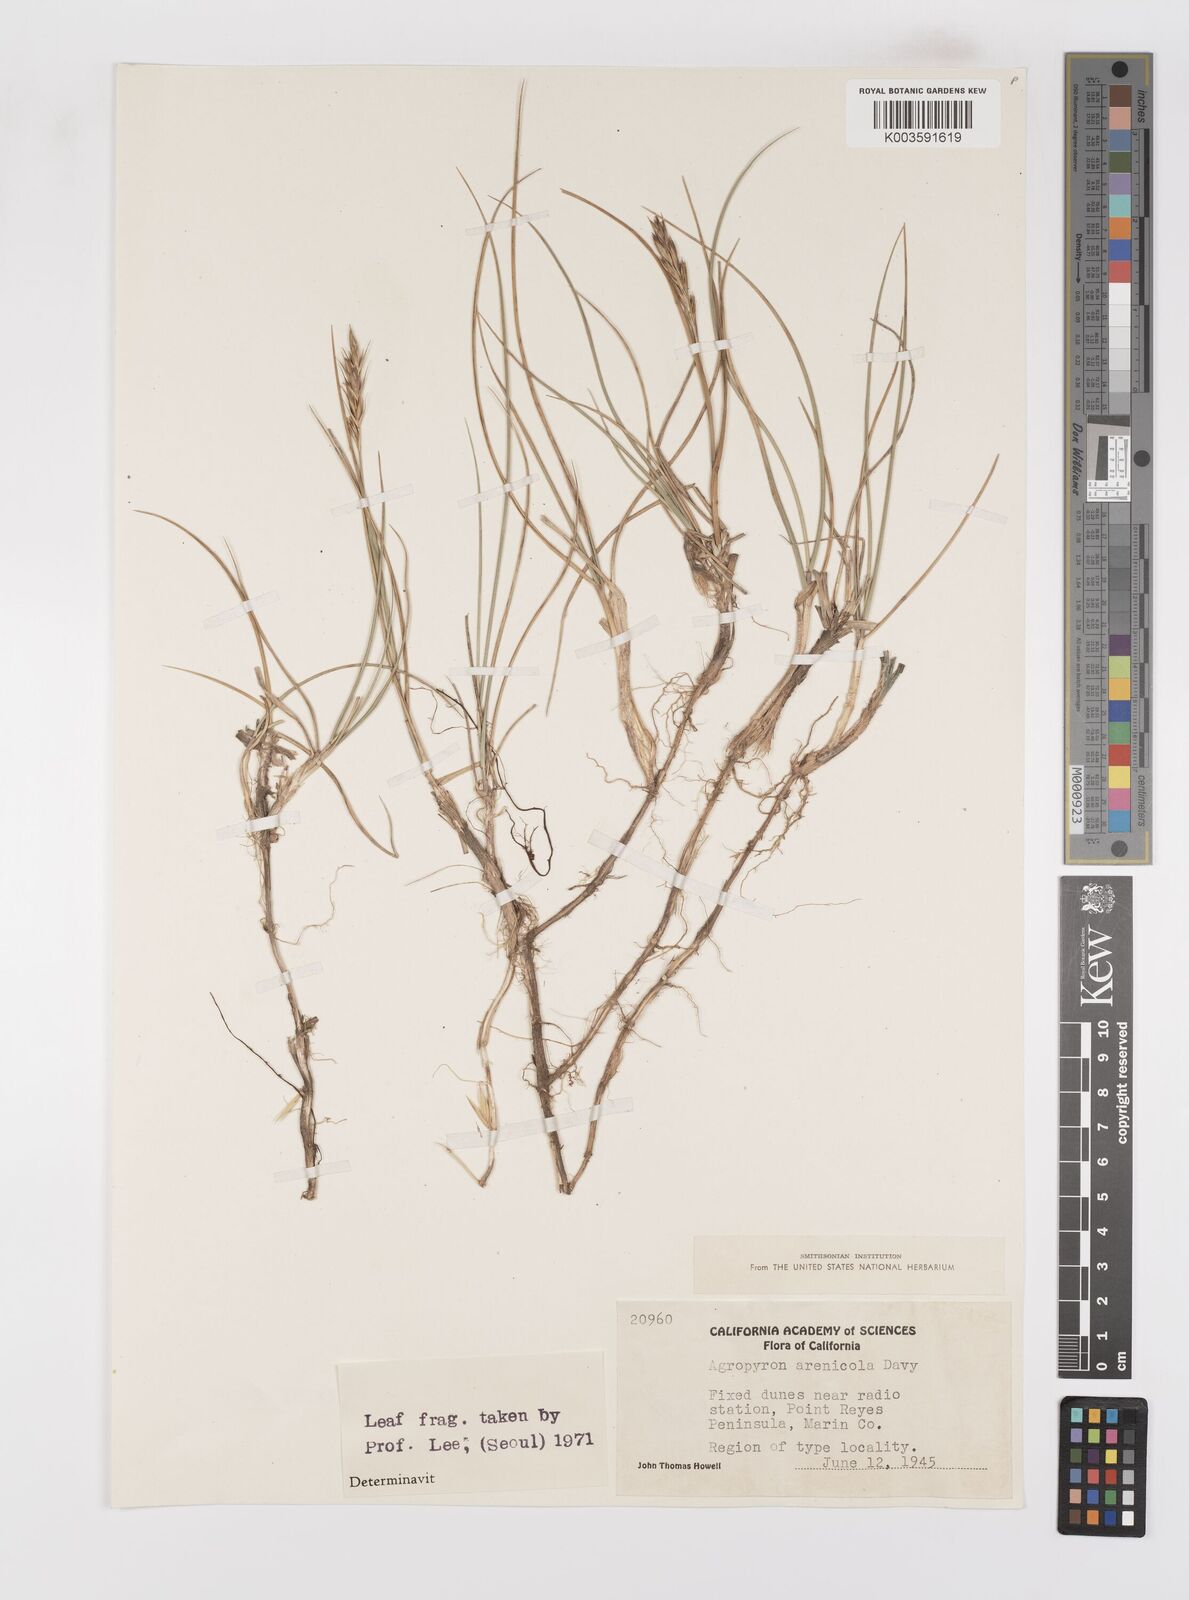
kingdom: Plantae
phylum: Tracheophyta
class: Liliopsida
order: Poales
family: Poaceae
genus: Leymus
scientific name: Leymus flavescens
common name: Yellow wild rye
